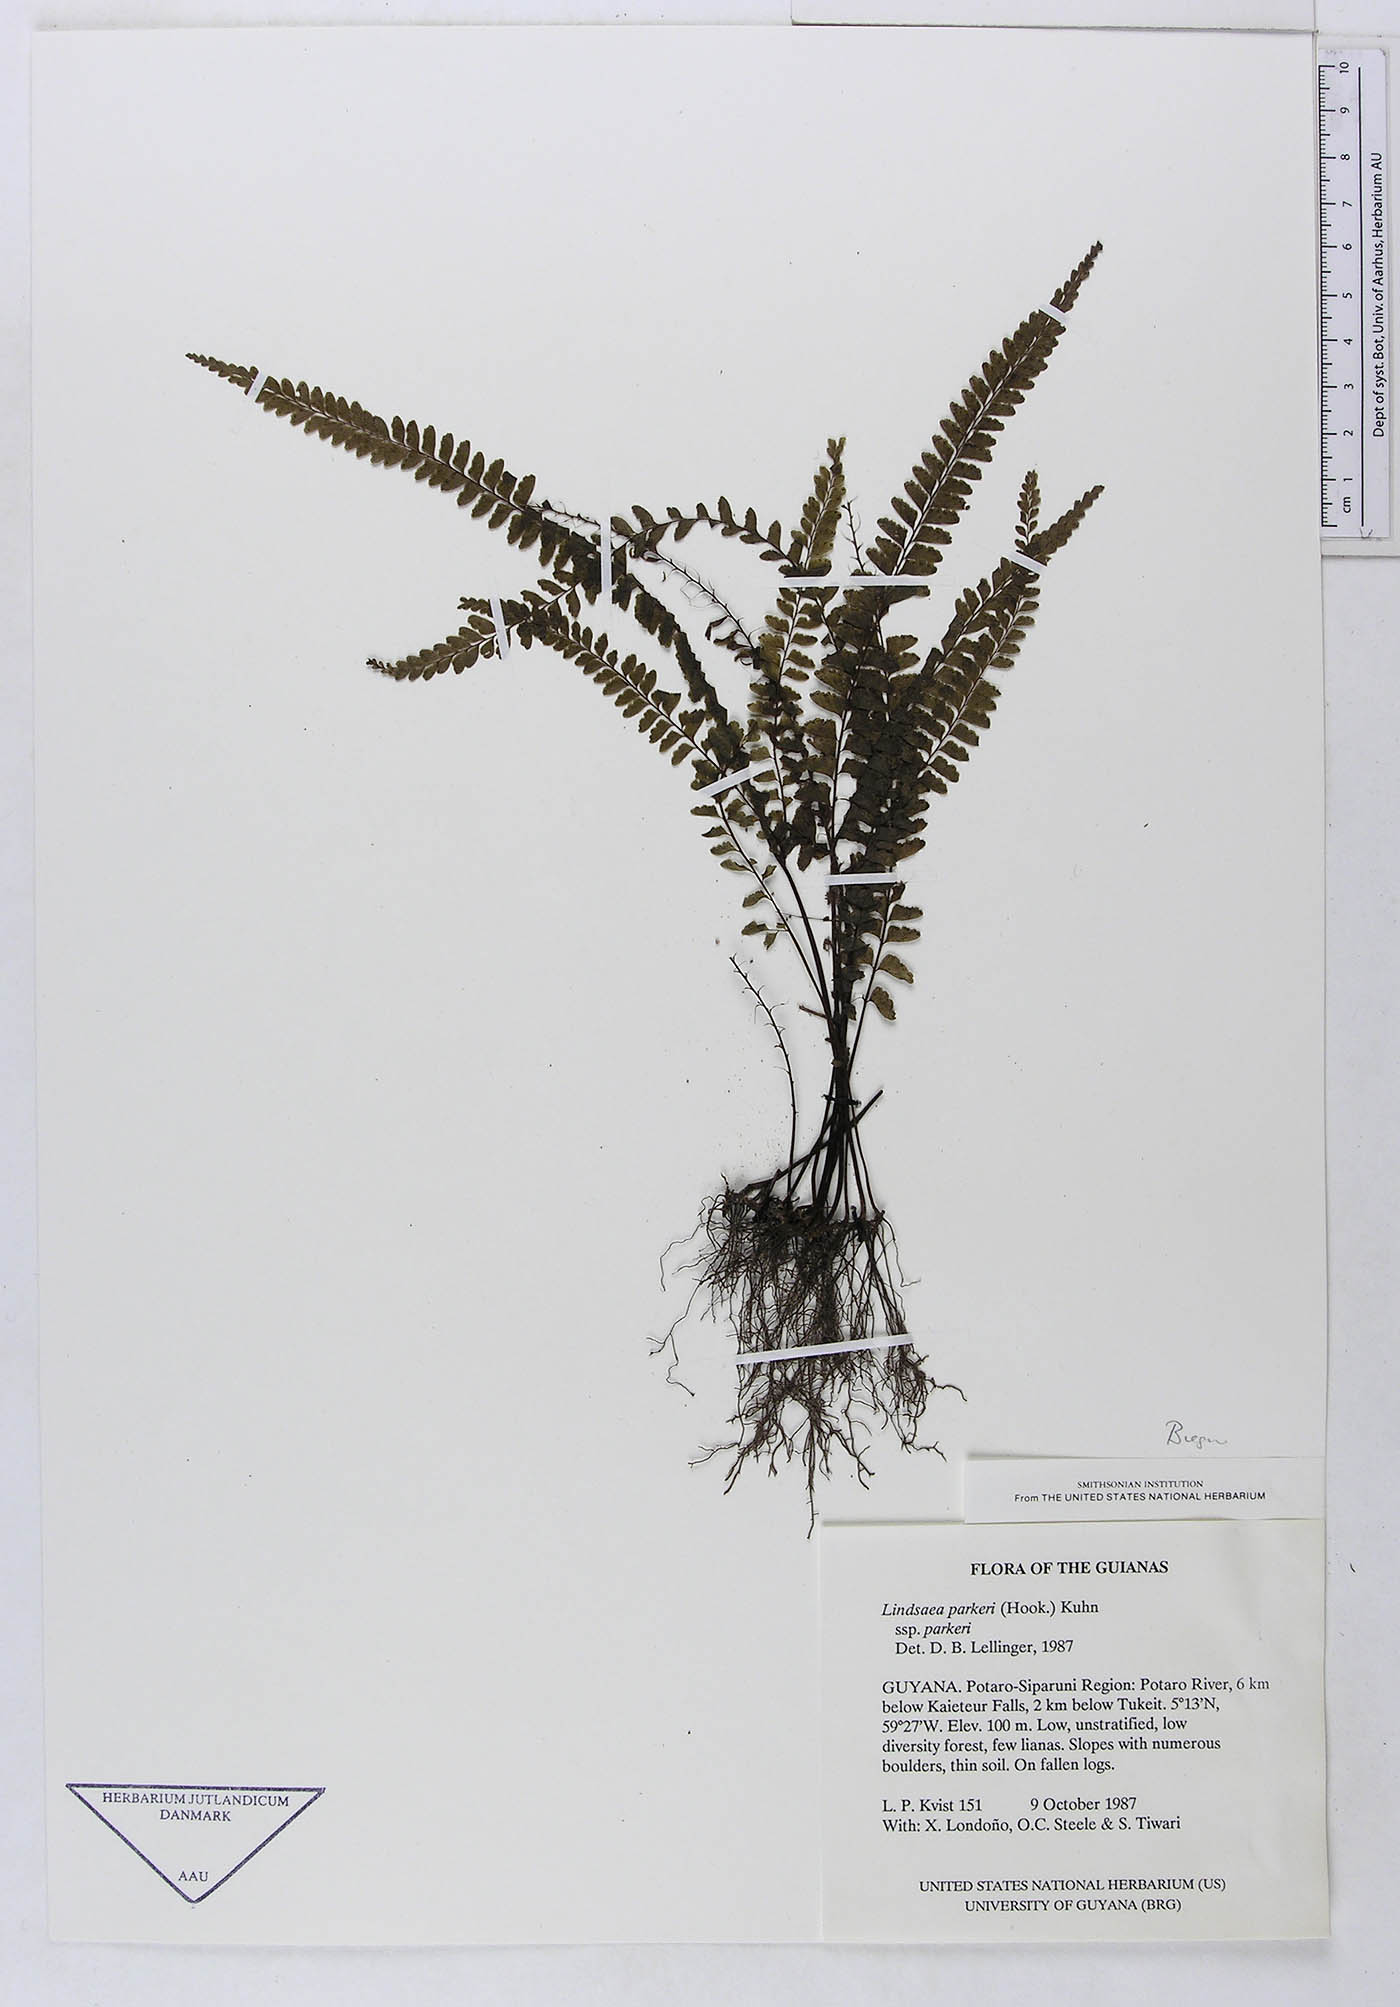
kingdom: Plantae
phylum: Tracheophyta
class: Polypodiopsida
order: Polypodiales
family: Dennstaedtiaceae
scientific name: Dennstaedtiaceae
